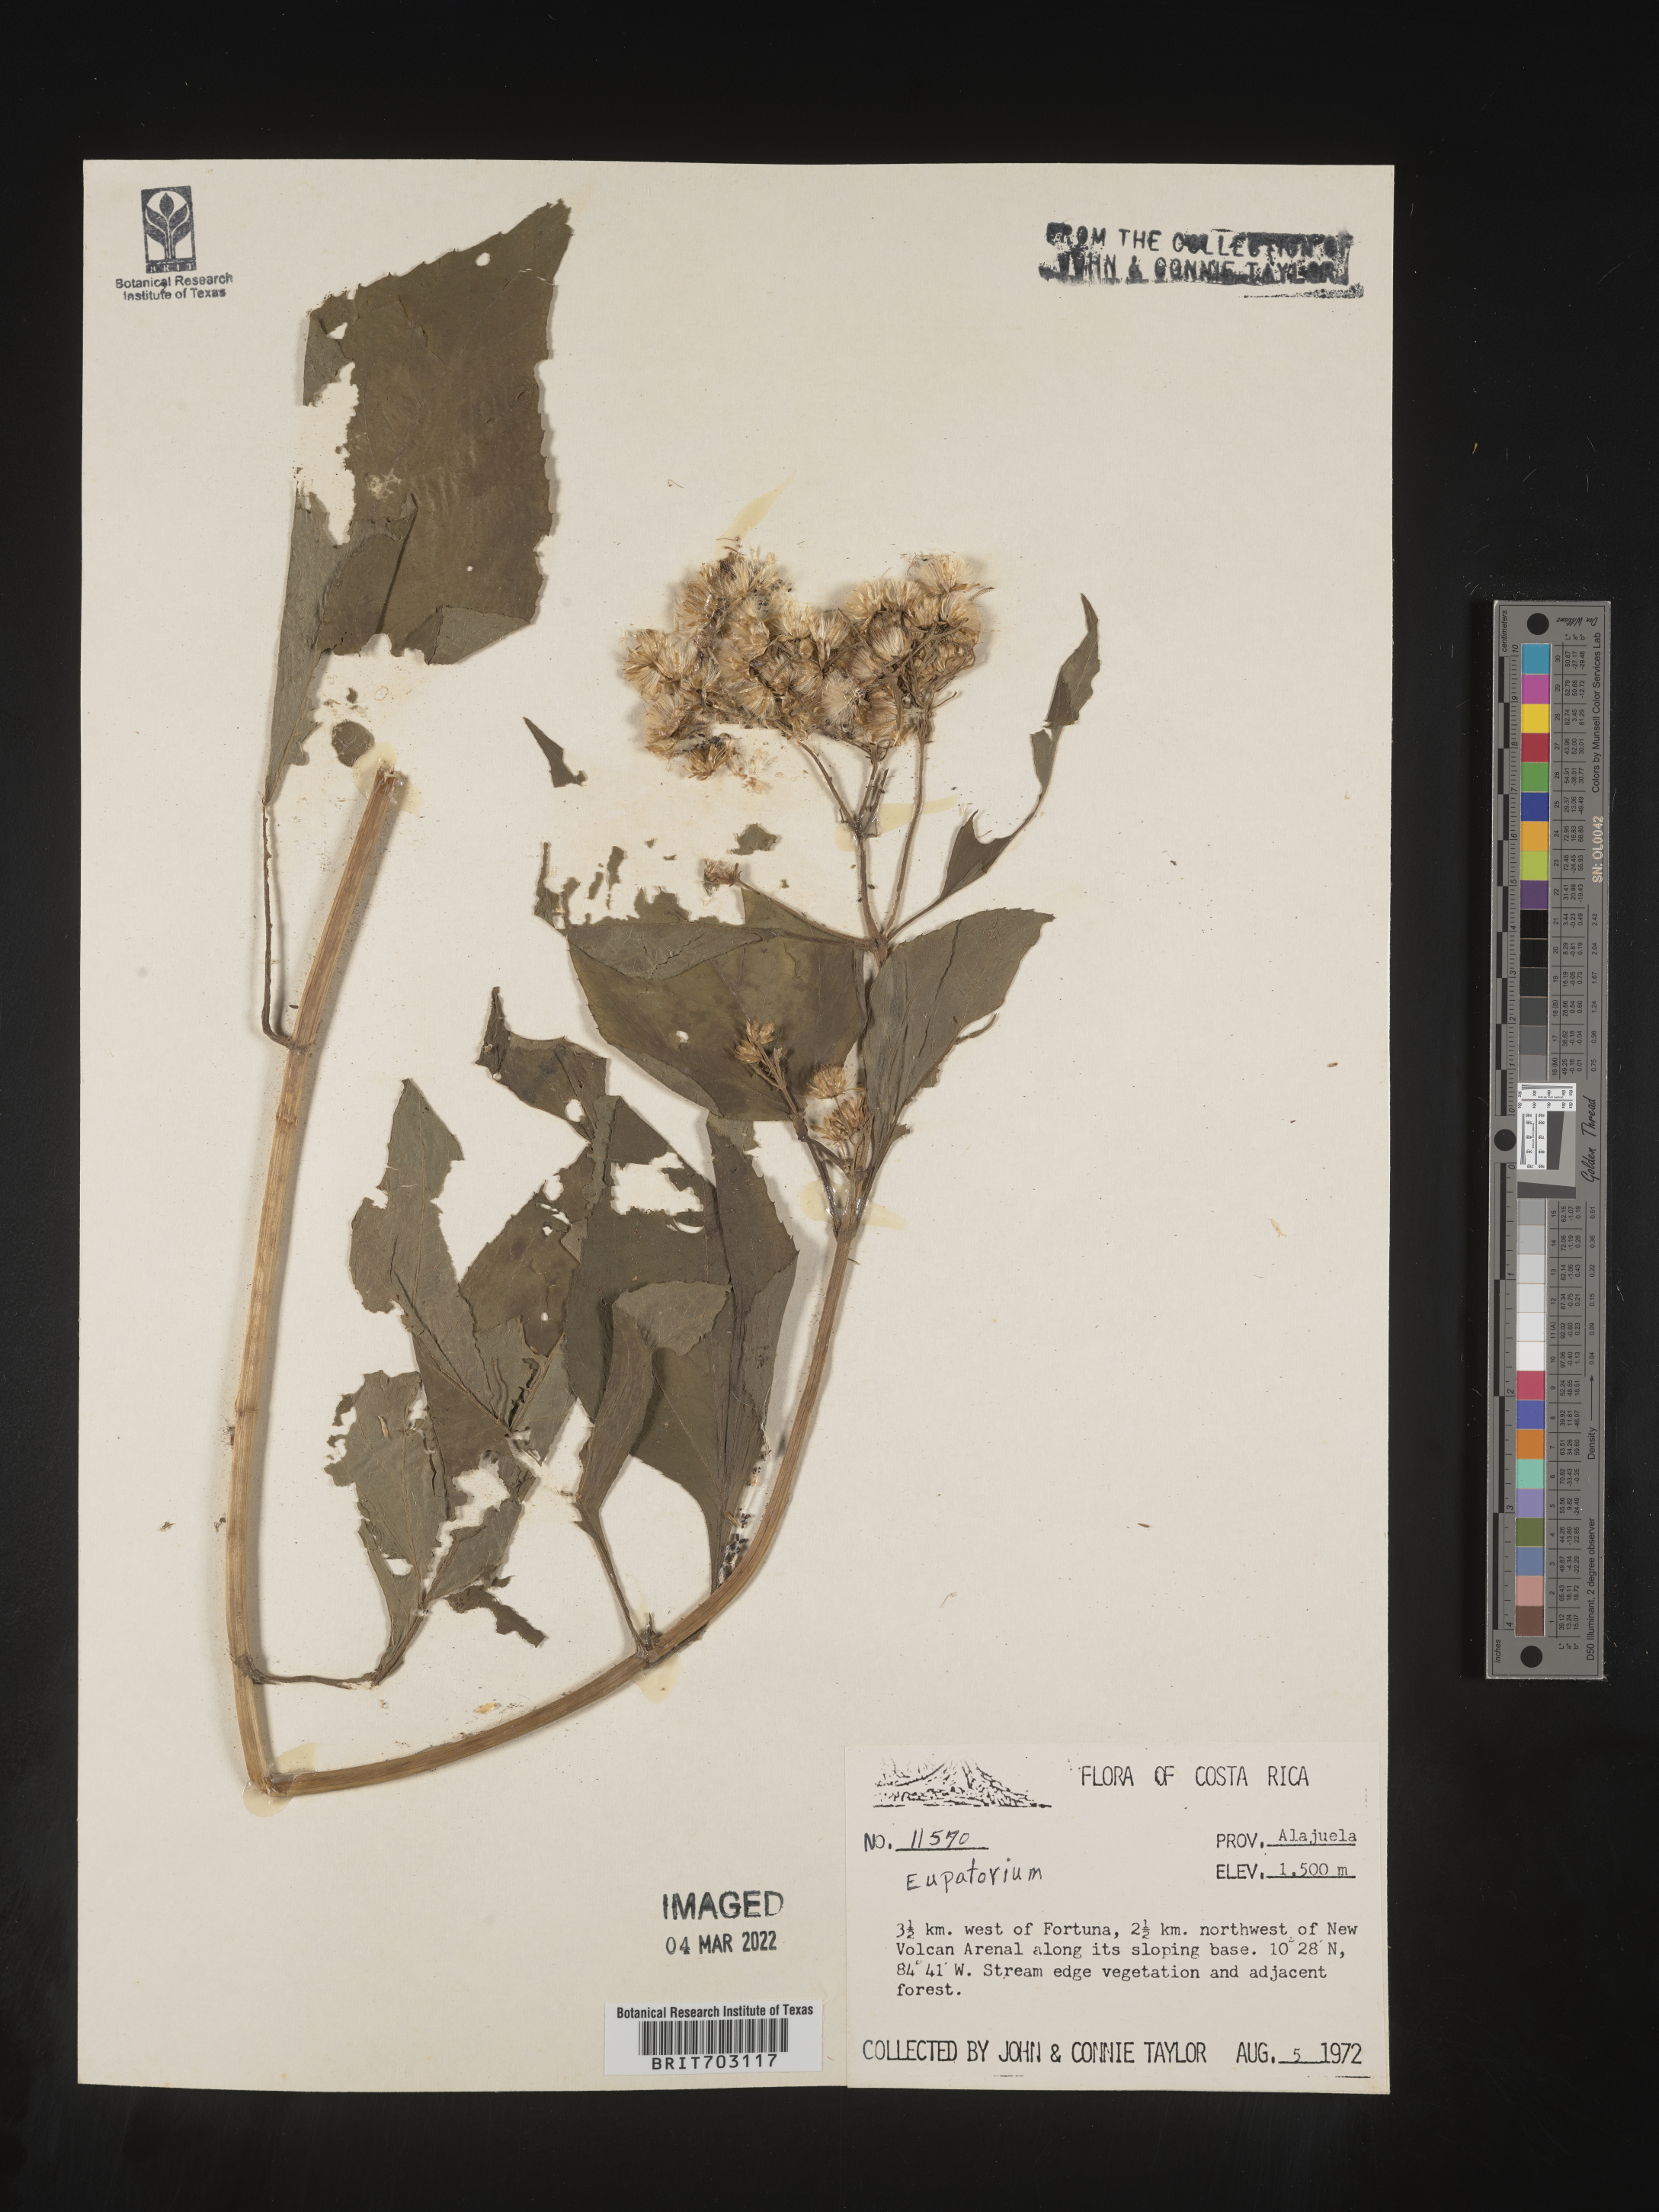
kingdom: Plantae
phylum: Tracheophyta
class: Magnoliopsida
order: Asterales
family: Asteraceae
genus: Eupatorium
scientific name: Eupatorium
